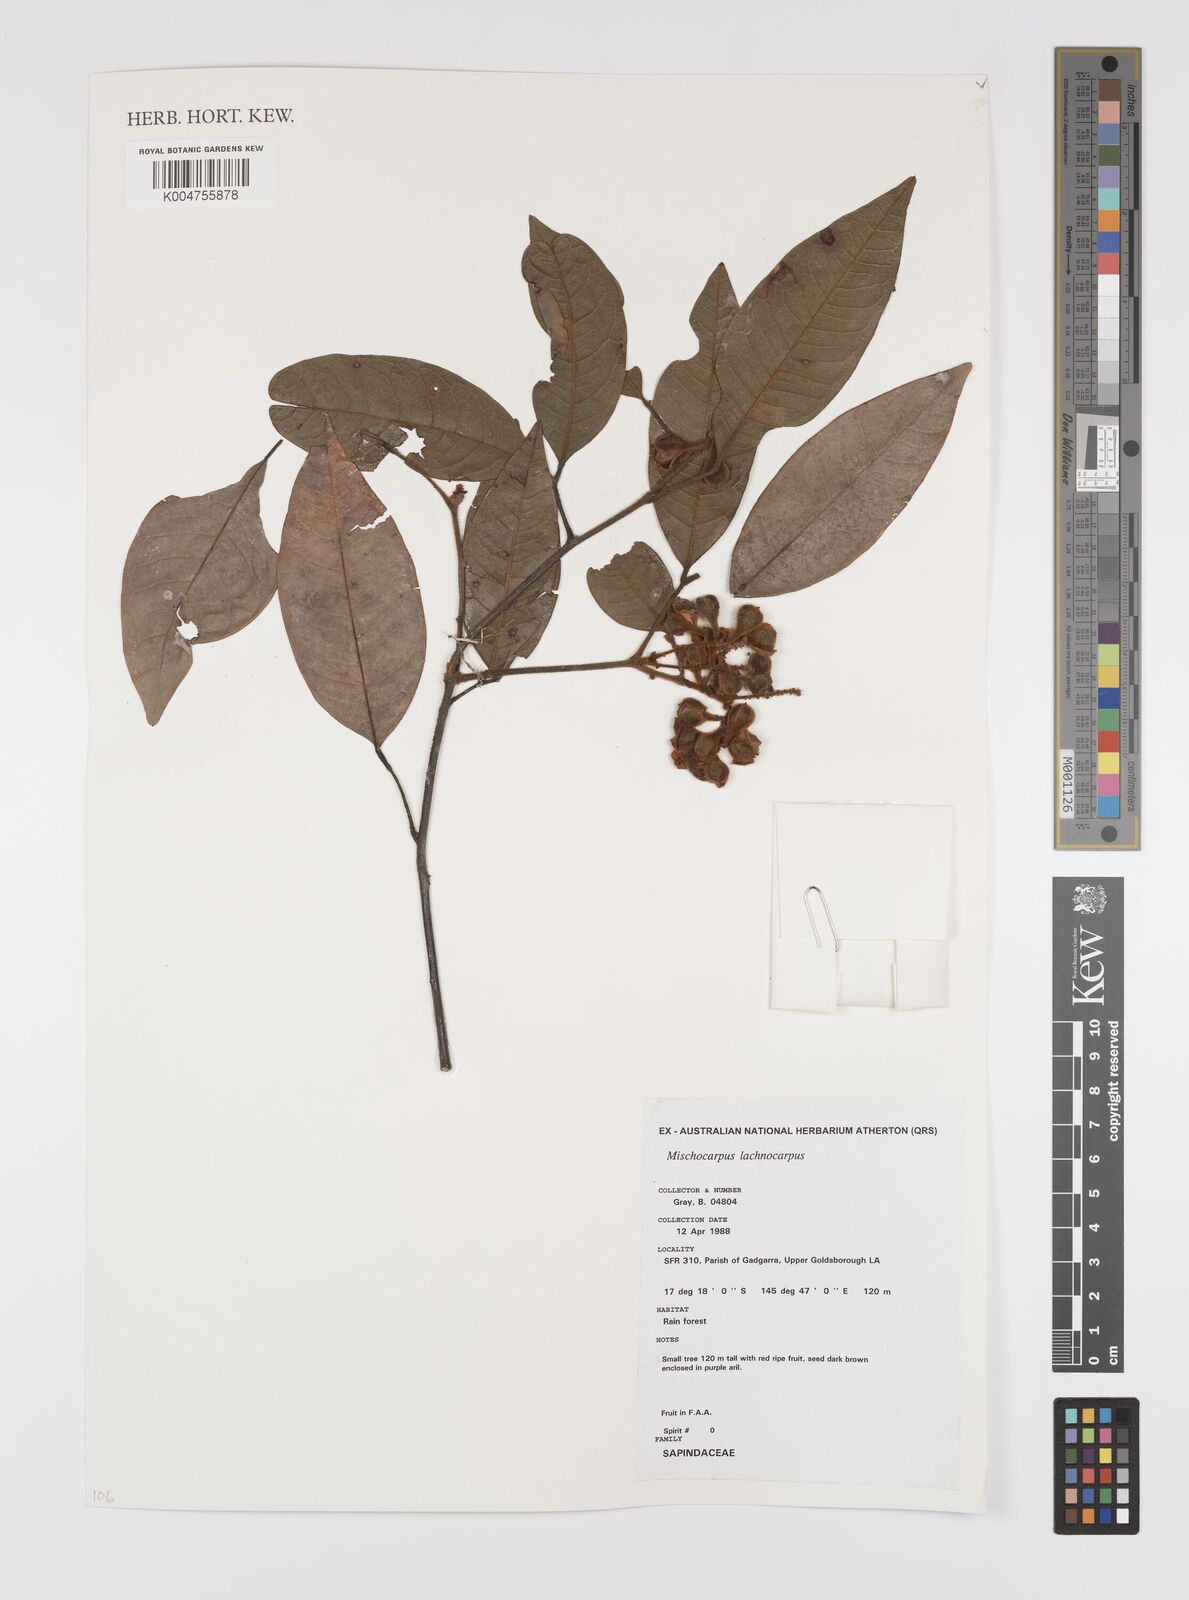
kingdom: Plantae
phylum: Tracheophyta
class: Magnoliopsida
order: Sapindales
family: Sapindaceae
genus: Mischocarpus
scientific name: Mischocarpus lachnocarpus
